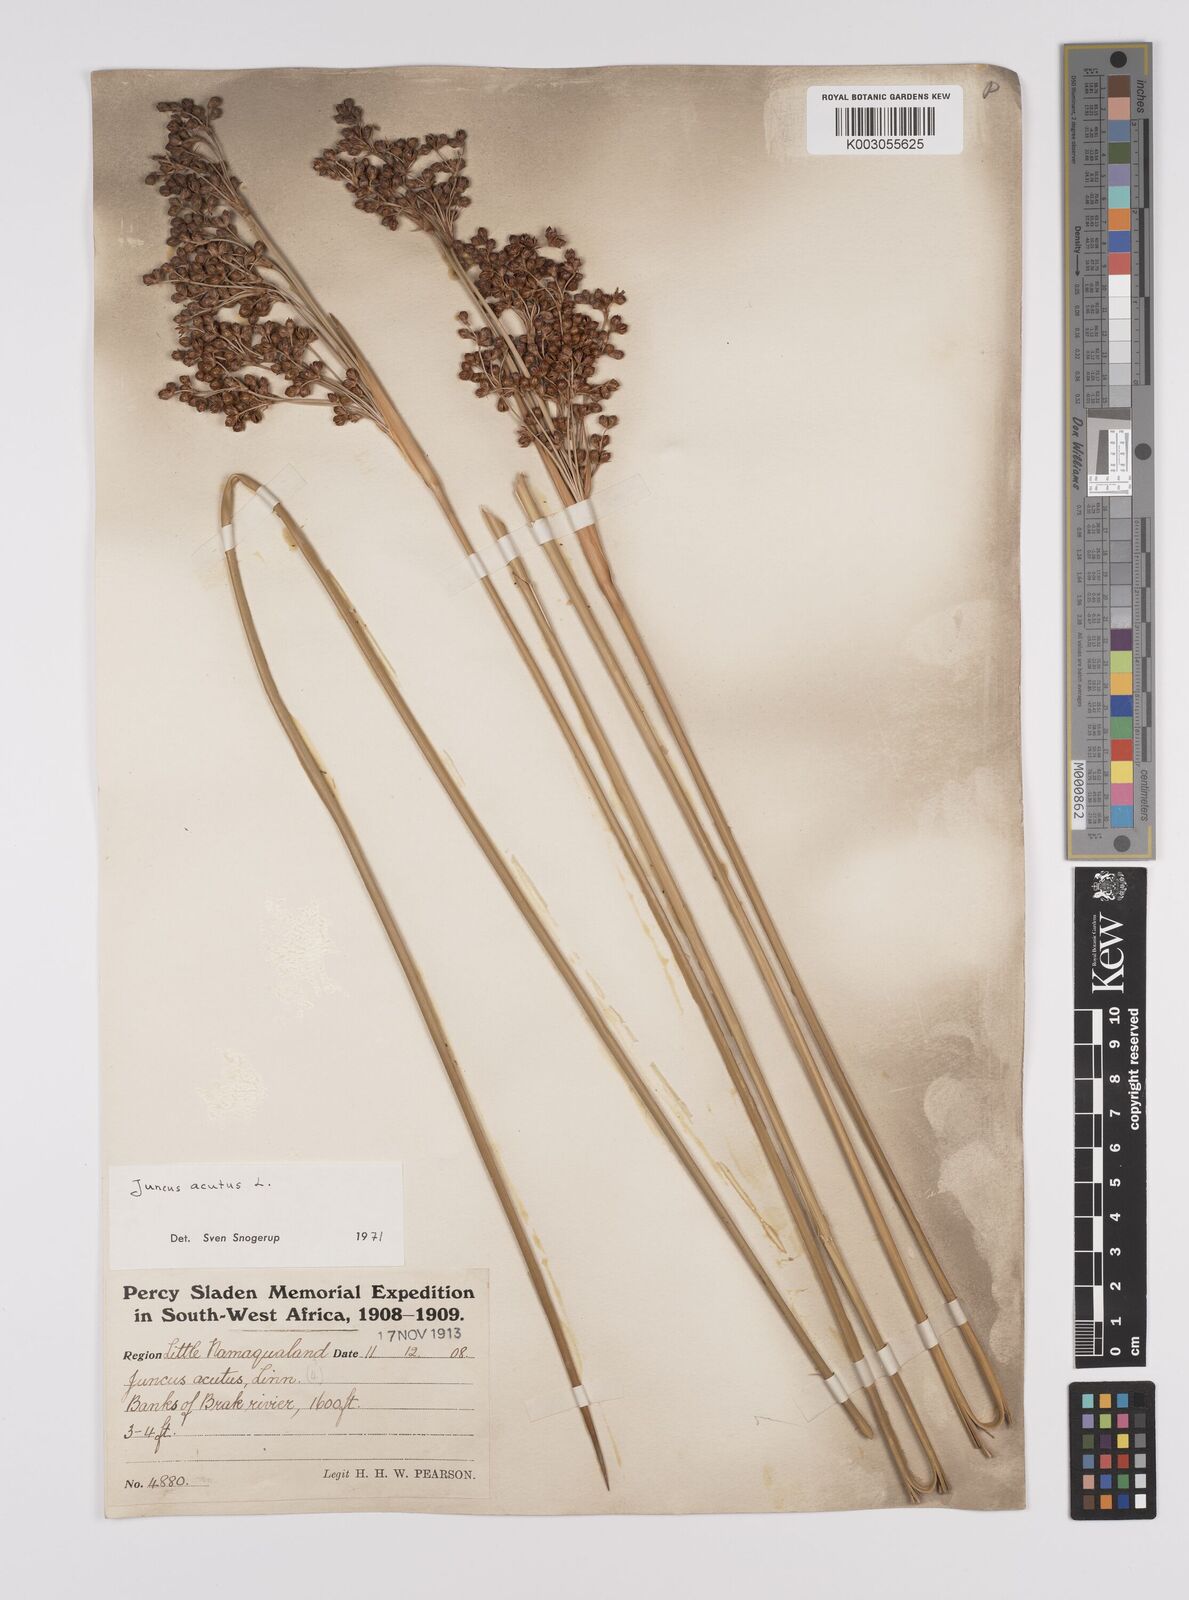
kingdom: Plantae
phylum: Tracheophyta
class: Liliopsida
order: Poales
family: Juncaceae
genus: Juncus
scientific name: Juncus acutus
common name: Sharp rush
